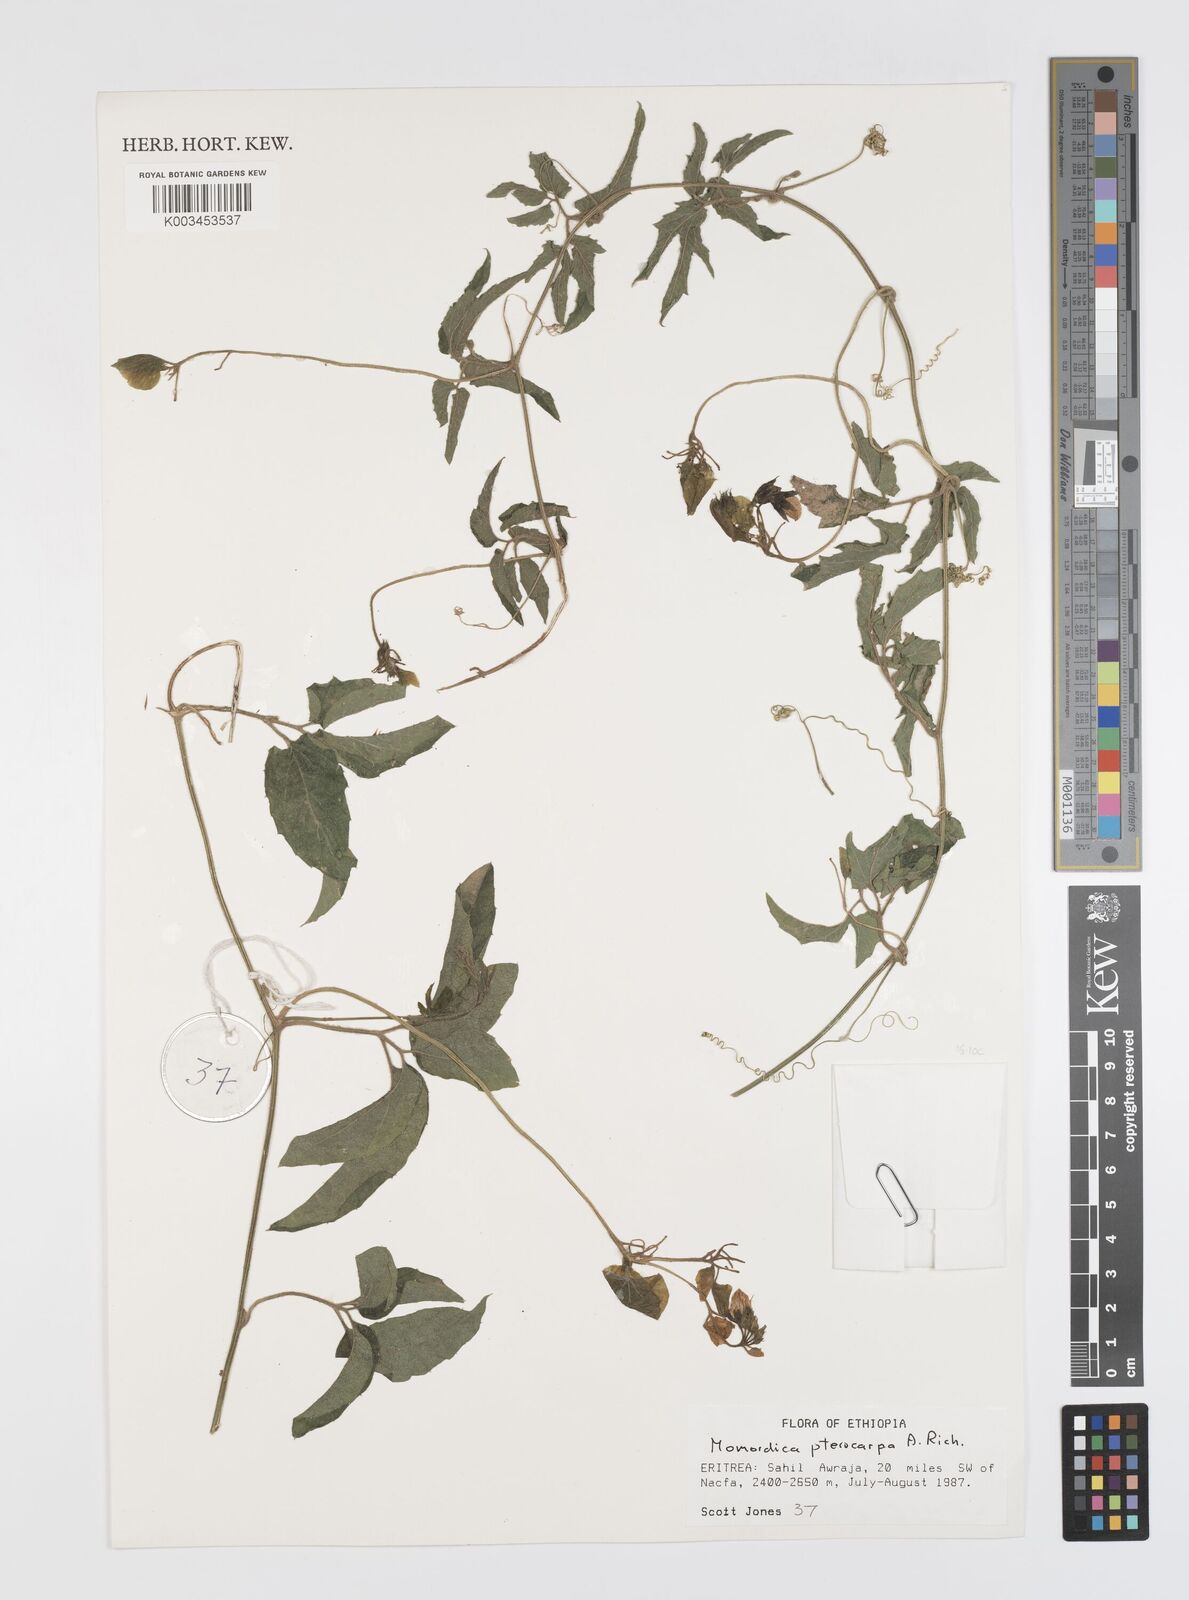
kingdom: Plantae
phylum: Tracheophyta
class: Magnoliopsida
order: Cucurbitales
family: Cucurbitaceae
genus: Momordica
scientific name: Momordica pterocarpa
